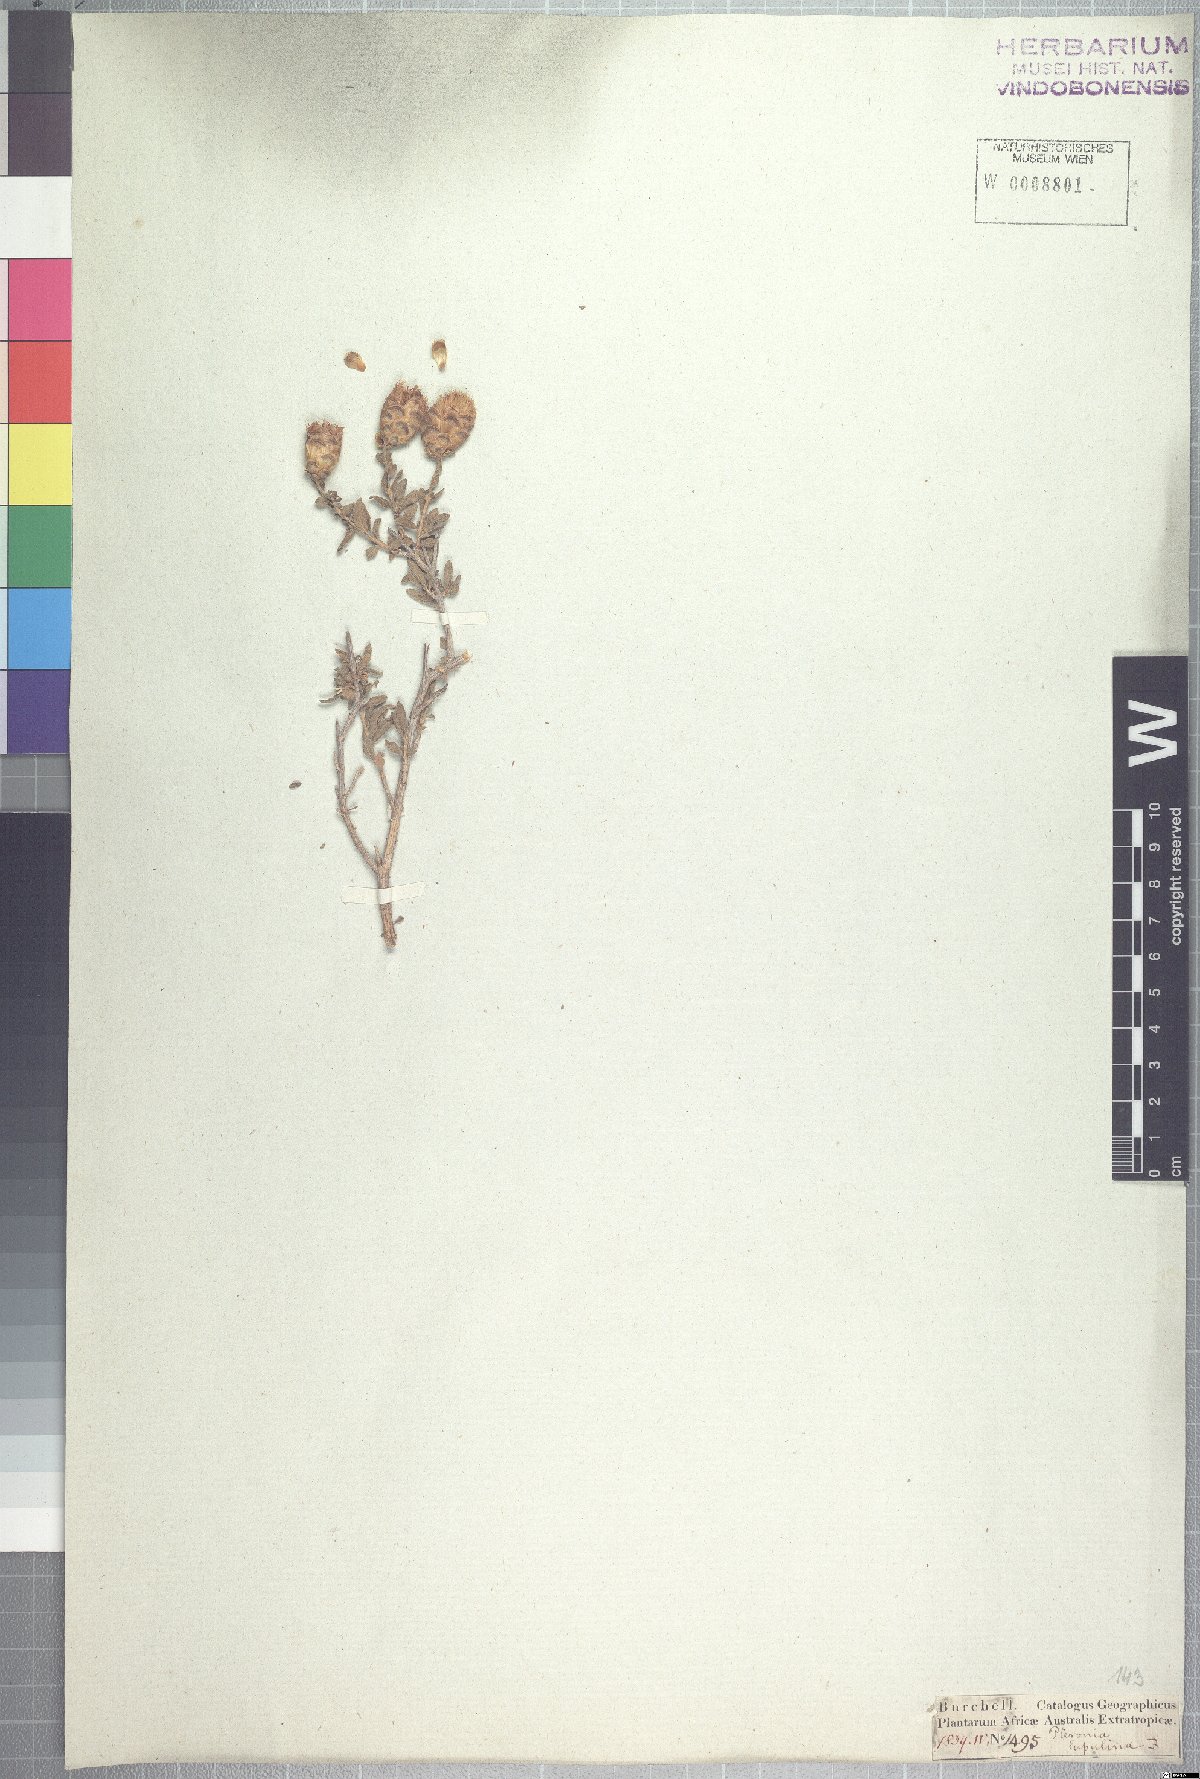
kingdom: Plantae
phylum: Tracheophyta
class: Magnoliopsida
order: Asterales
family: Asteraceae
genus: Pteronia
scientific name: Pteronia inflexa
